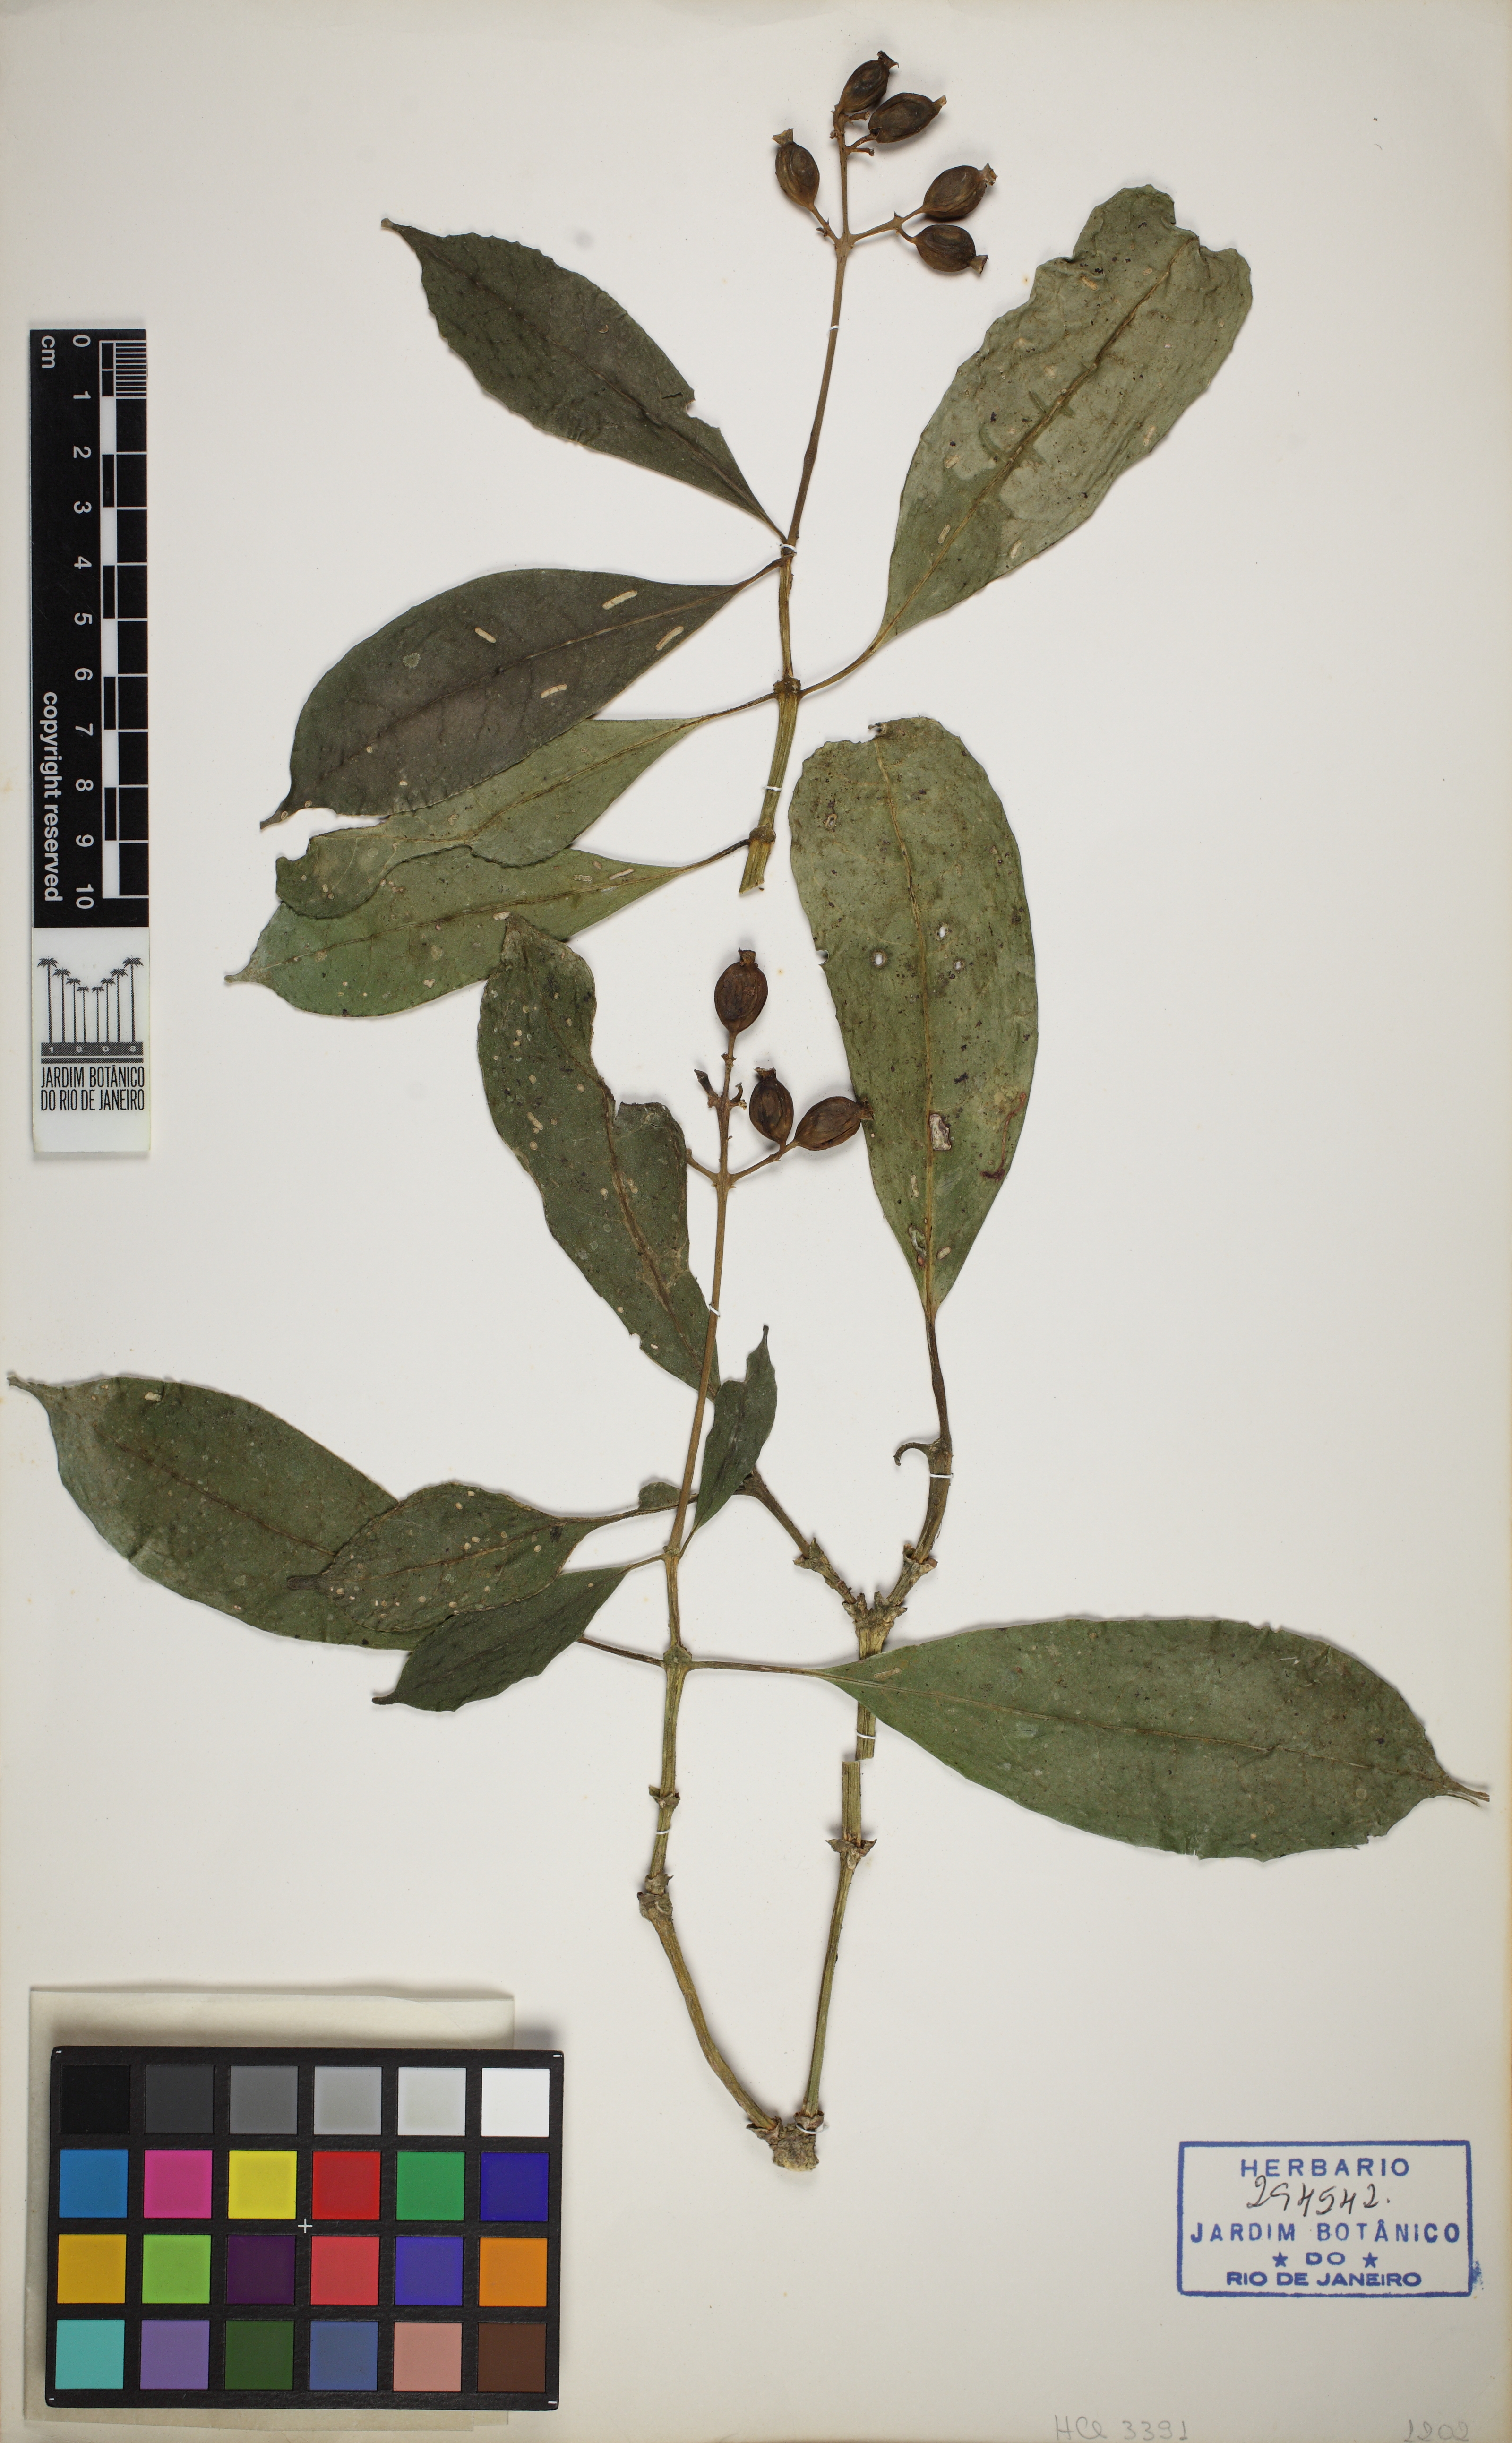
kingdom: Plantae
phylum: Tracheophyta
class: Magnoliopsida
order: Gentianales
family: Rubiaceae
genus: Coussarea
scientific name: Coussarea friburgensis
